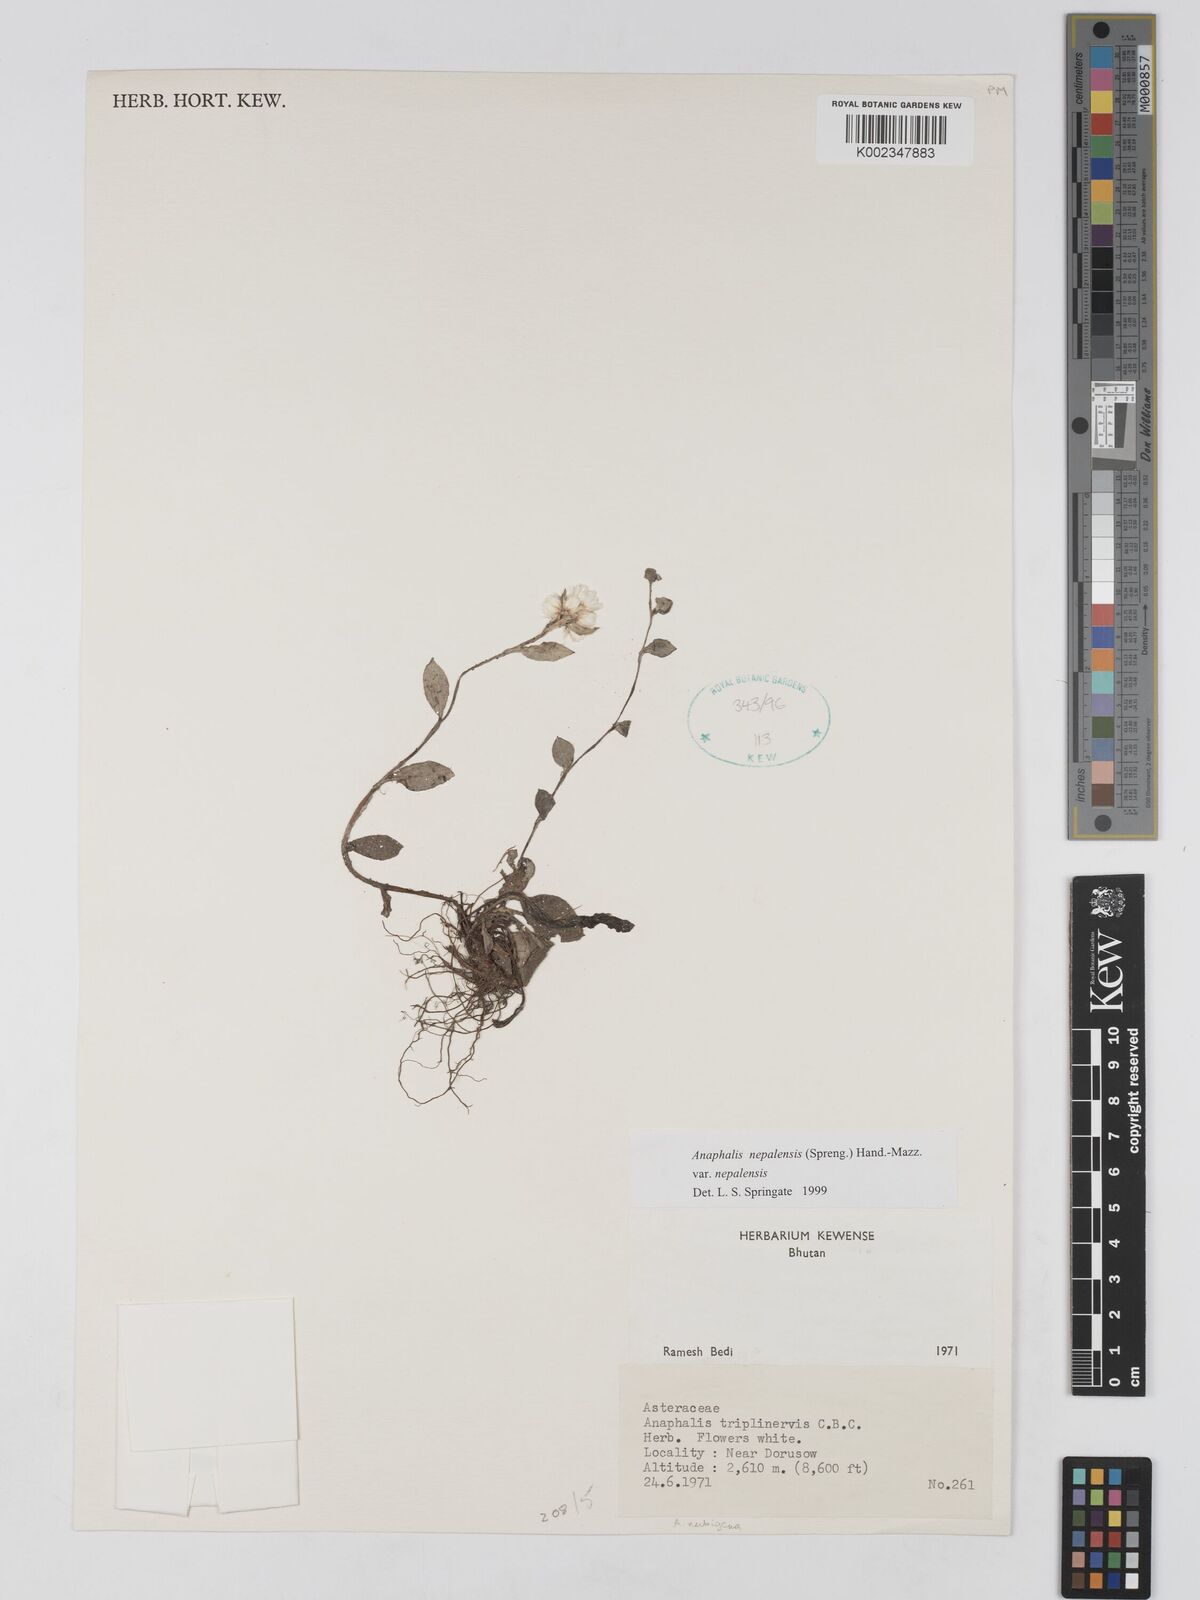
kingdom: Plantae
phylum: Tracheophyta
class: Magnoliopsida
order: Asterales
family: Asteraceae
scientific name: Asteraceae
